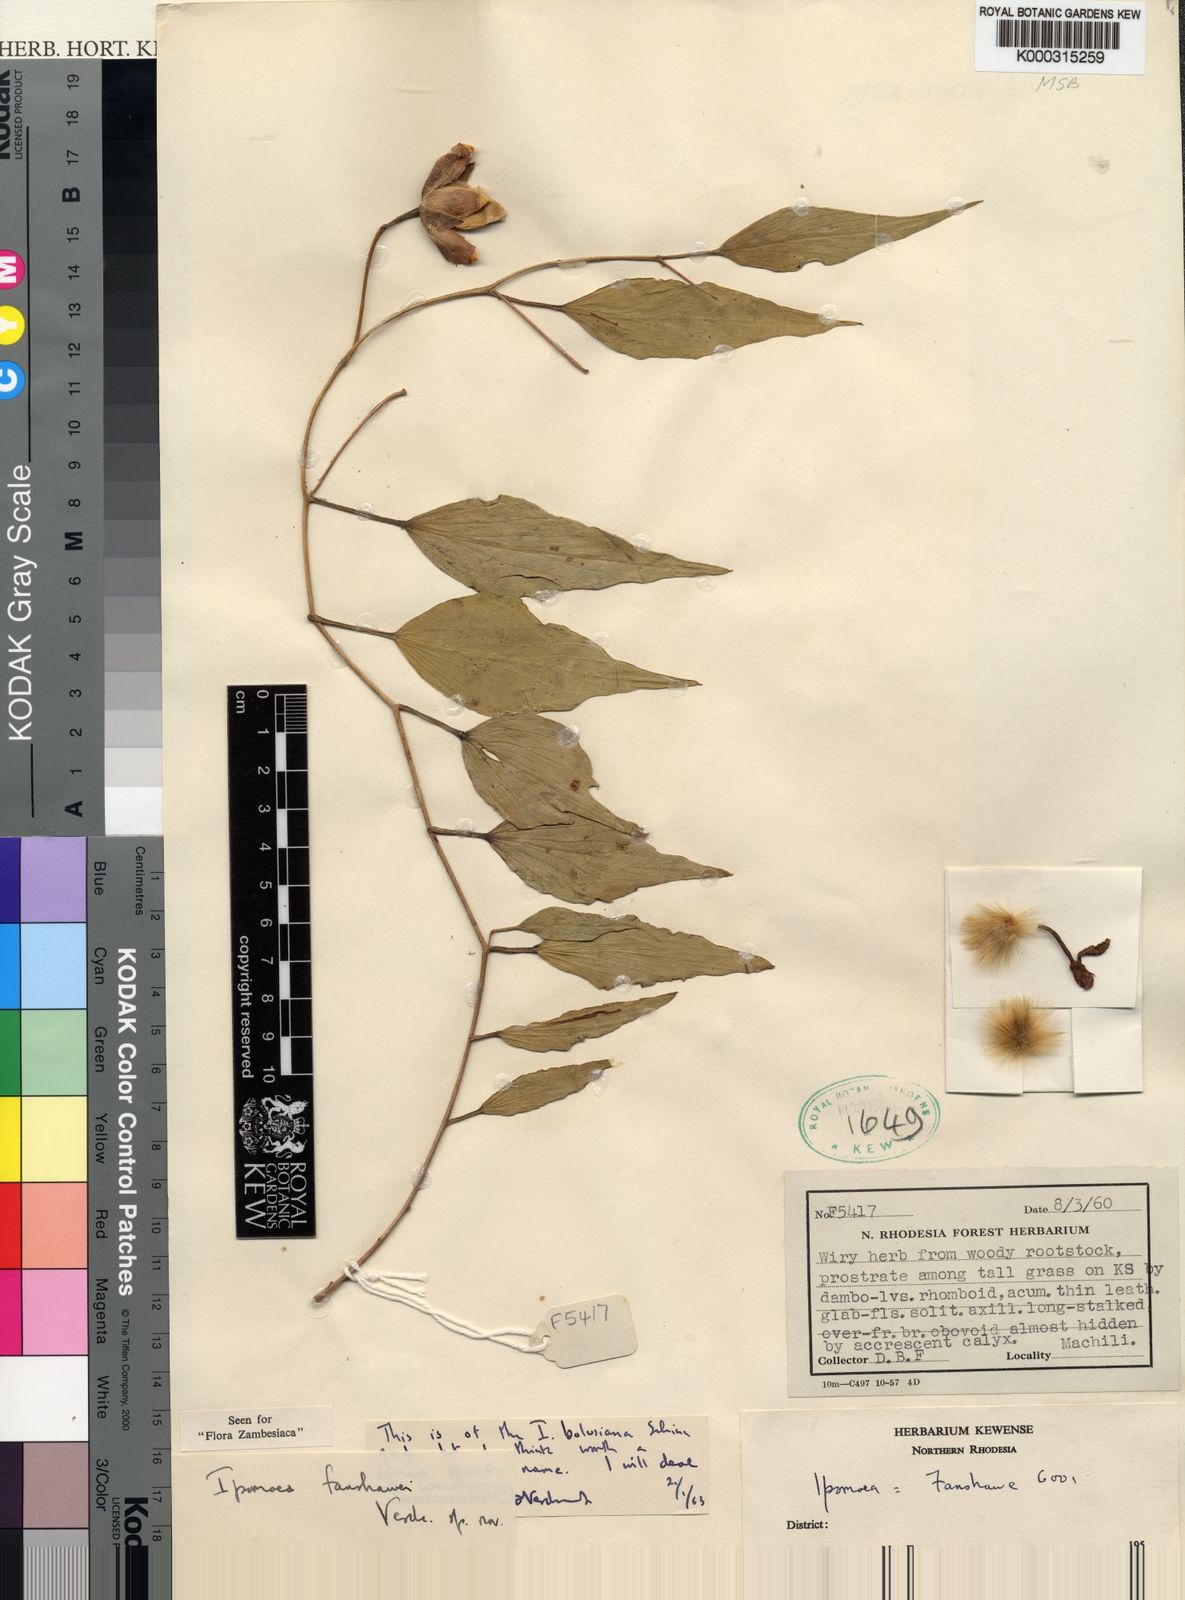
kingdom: Plantae
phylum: Tracheophyta
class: Magnoliopsida
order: Solanales
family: Convolvulaceae
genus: Ipomoea
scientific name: Ipomoea fanshawei
